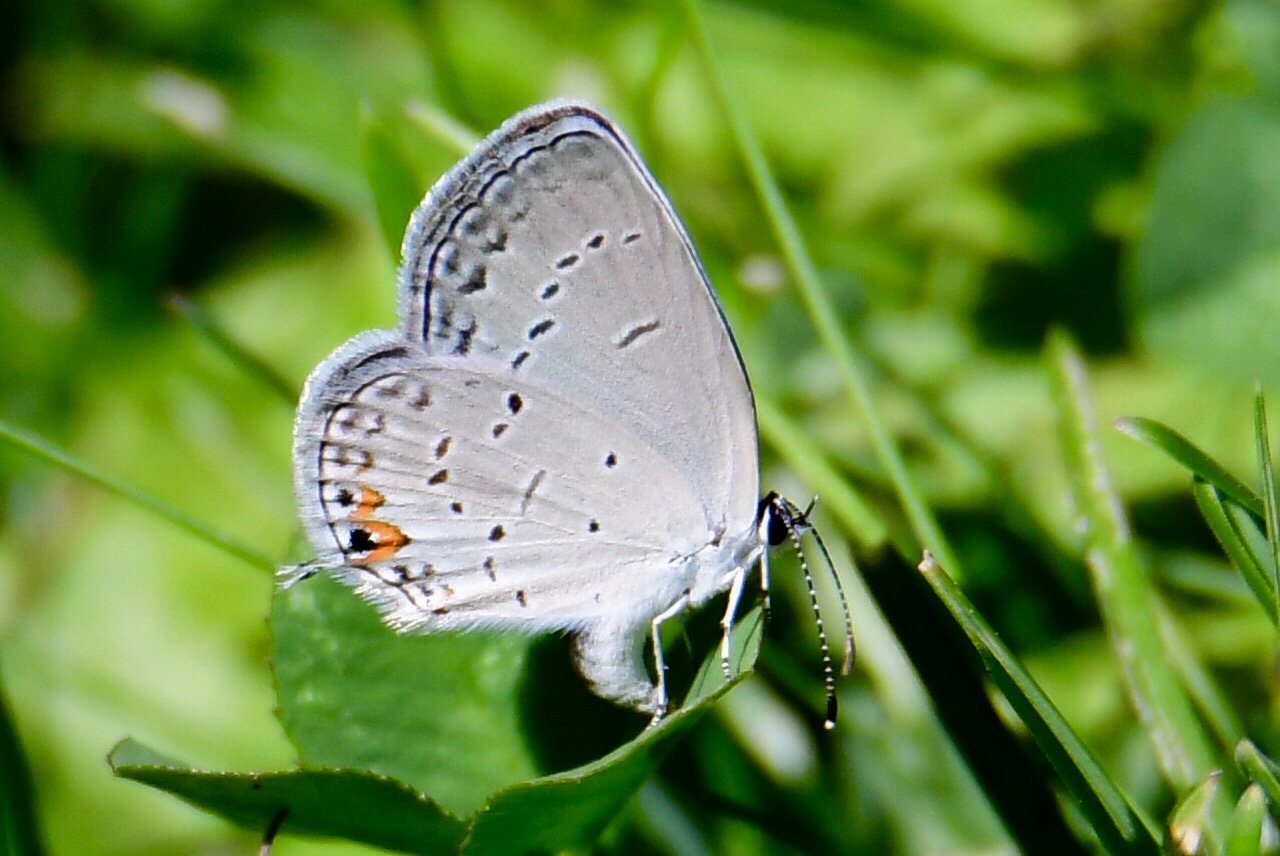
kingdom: Animalia
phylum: Arthropoda
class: Insecta
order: Lepidoptera
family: Lycaenidae
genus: Elkalyce
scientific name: Elkalyce comyntas
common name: Eastern Tailed-Blue
